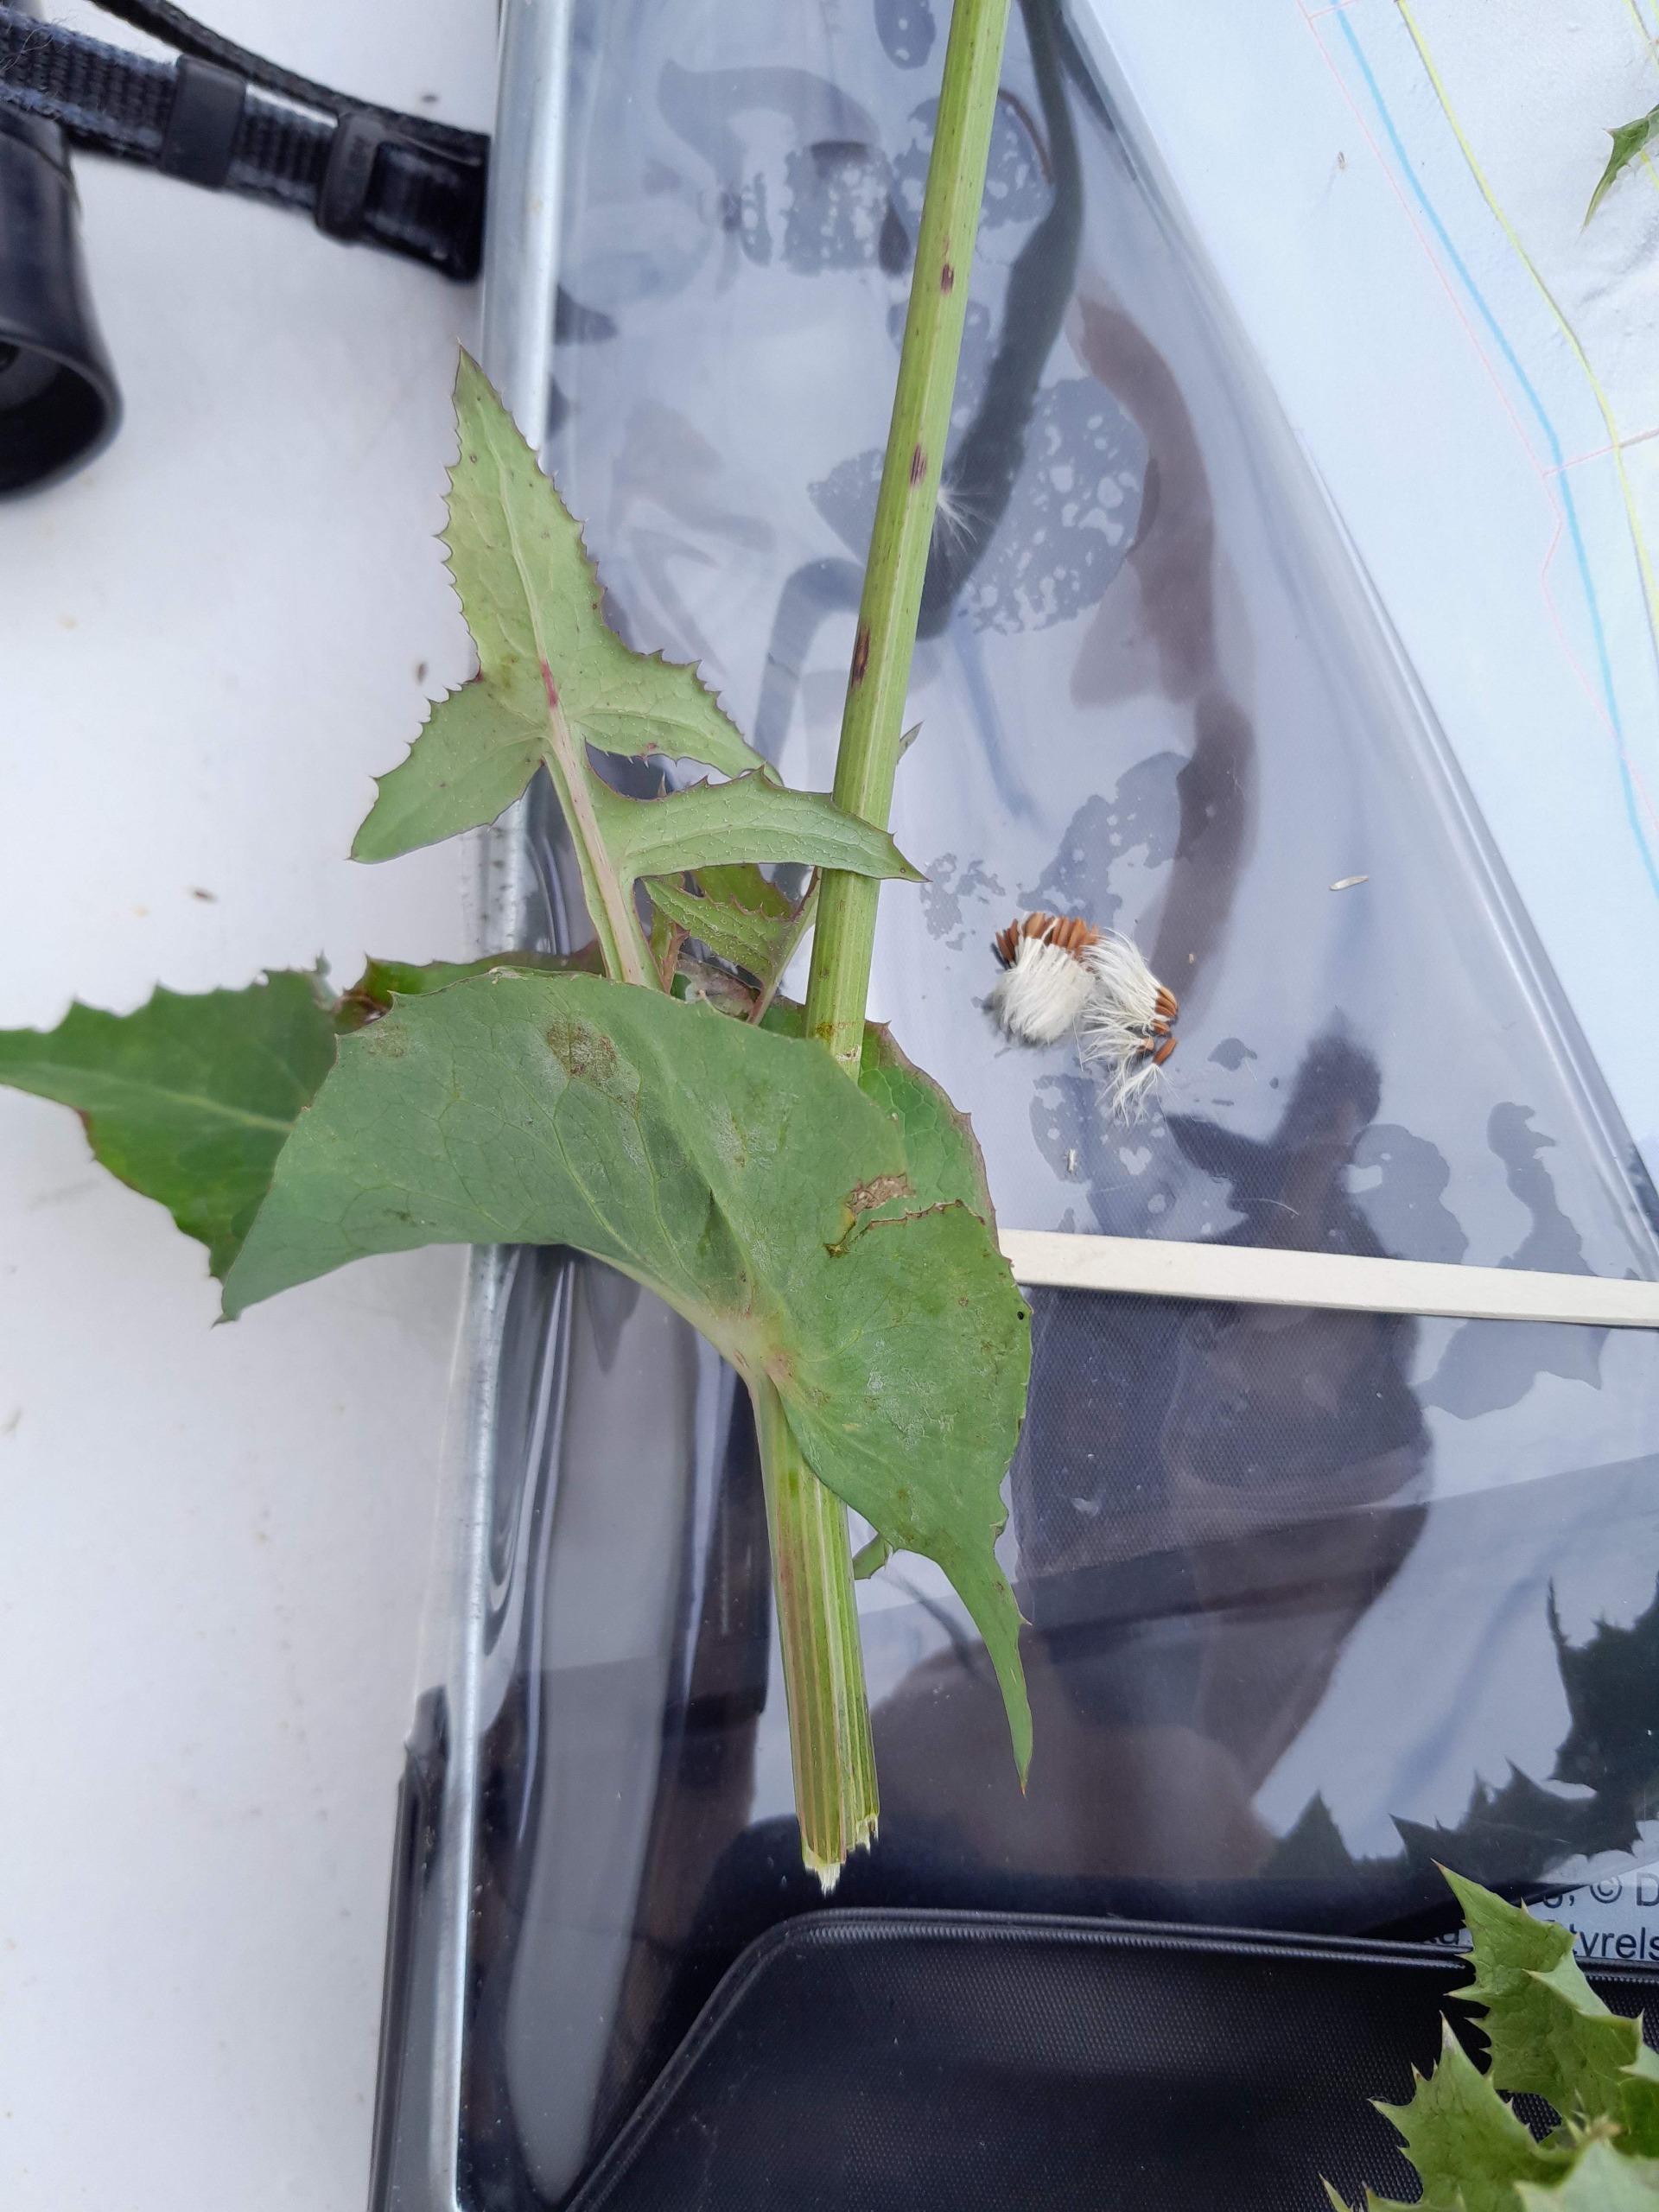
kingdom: Plantae
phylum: Tracheophyta
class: Magnoliopsida
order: Asterales
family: Asteraceae
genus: Sonchus
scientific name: Sonchus oleraceus
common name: Almindelig svinemælk
